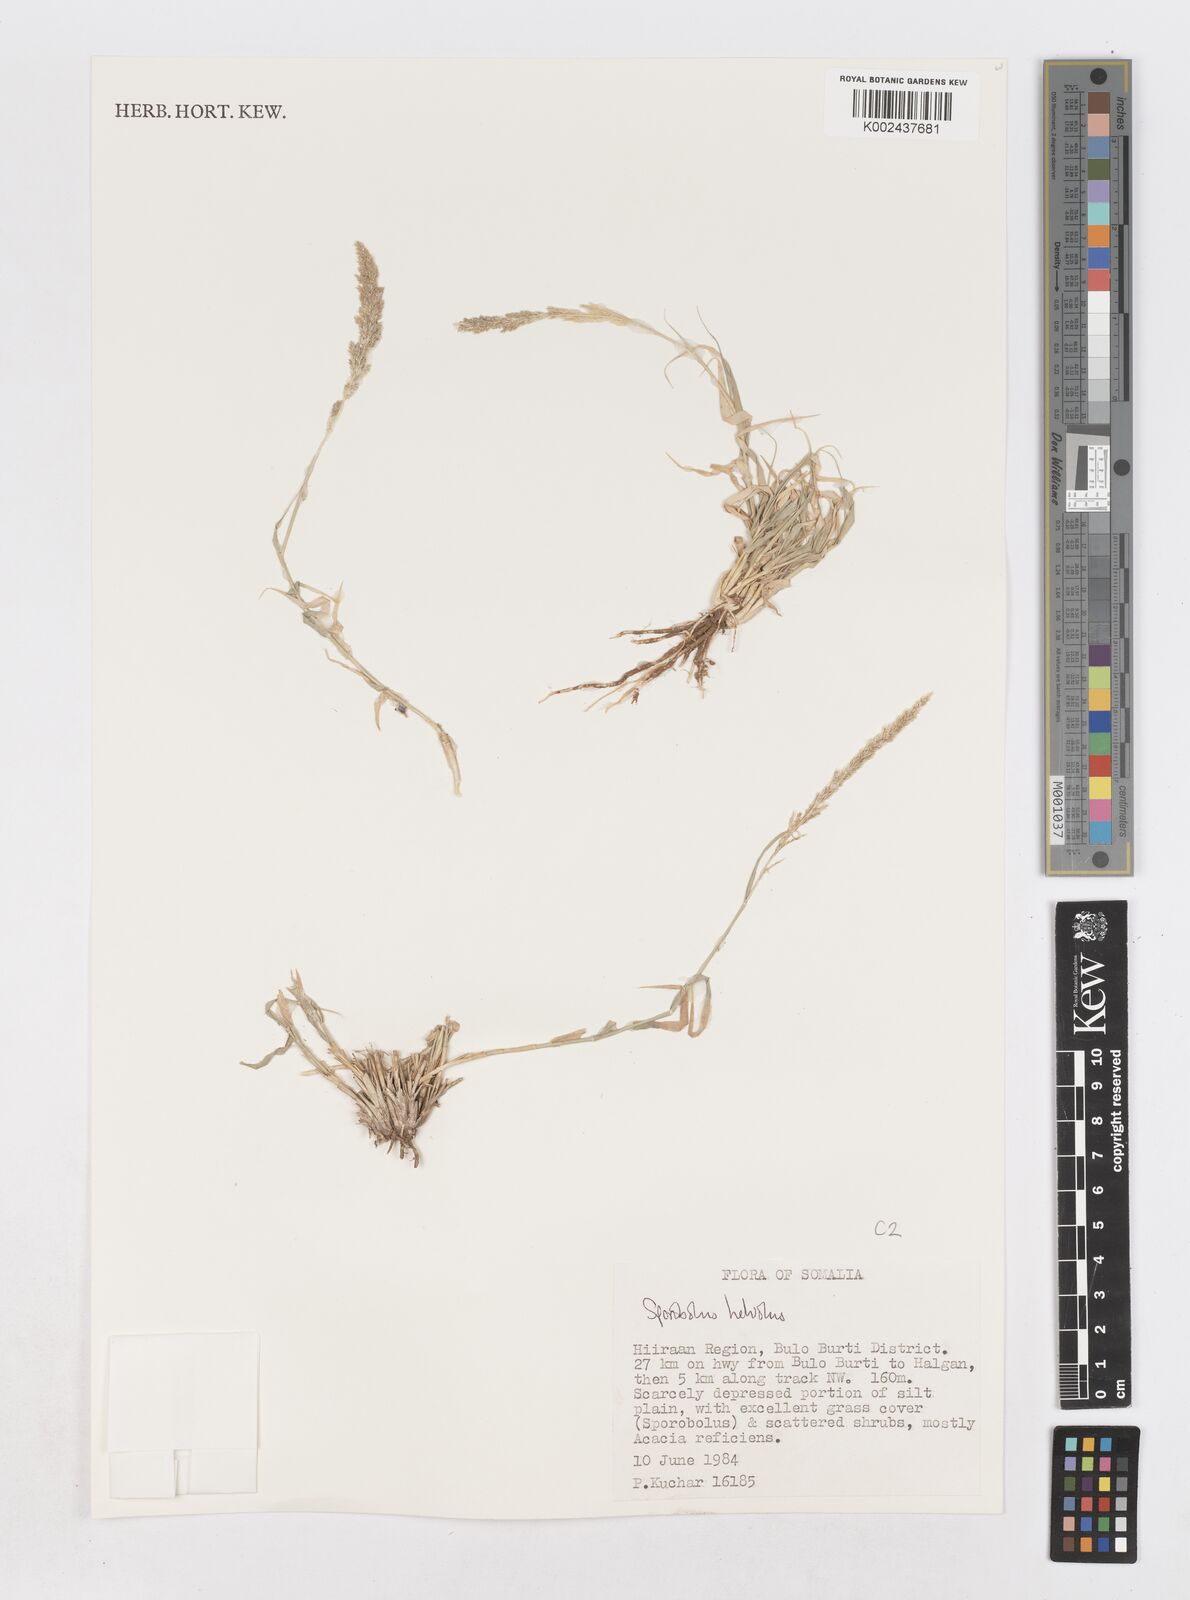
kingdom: Plantae
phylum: Tracheophyta
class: Liliopsida
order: Poales
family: Poaceae
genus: Sporobolus
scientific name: Sporobolus helvolus
